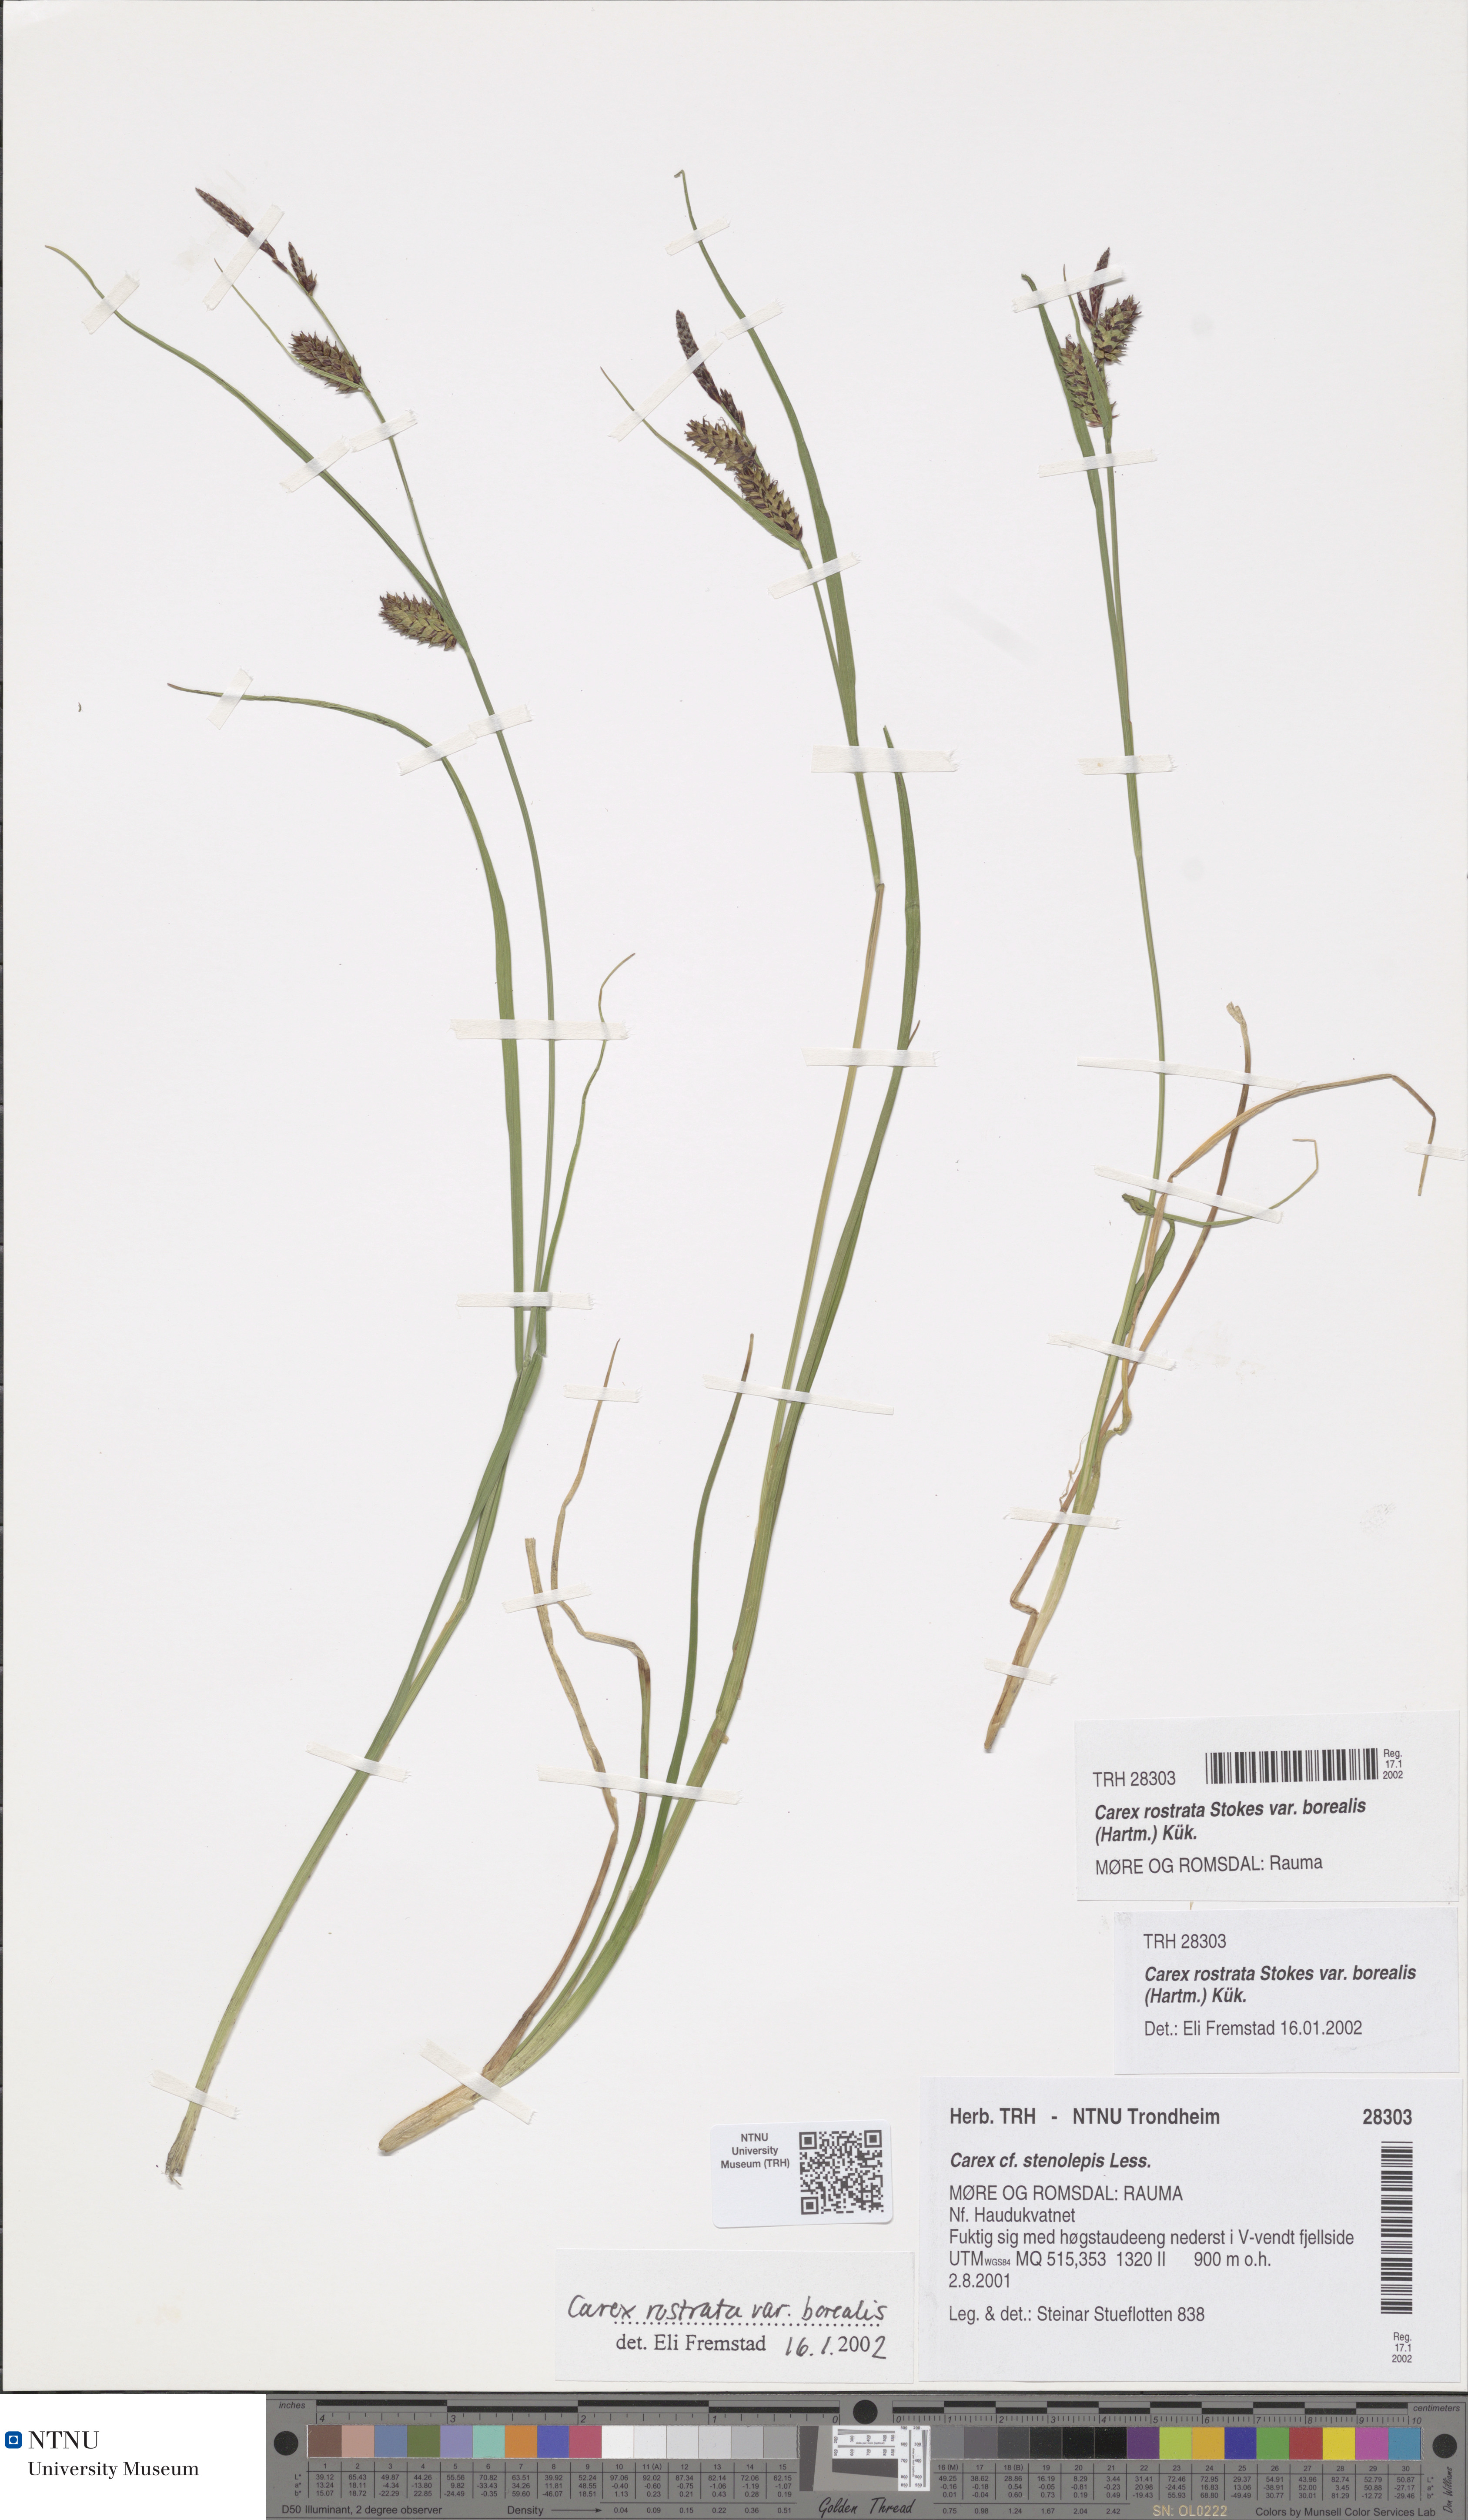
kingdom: Plantae
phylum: Tracheophyta
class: Liliopsida
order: Poales
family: Cyperaceae
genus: Carex
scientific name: Carex grahamii
